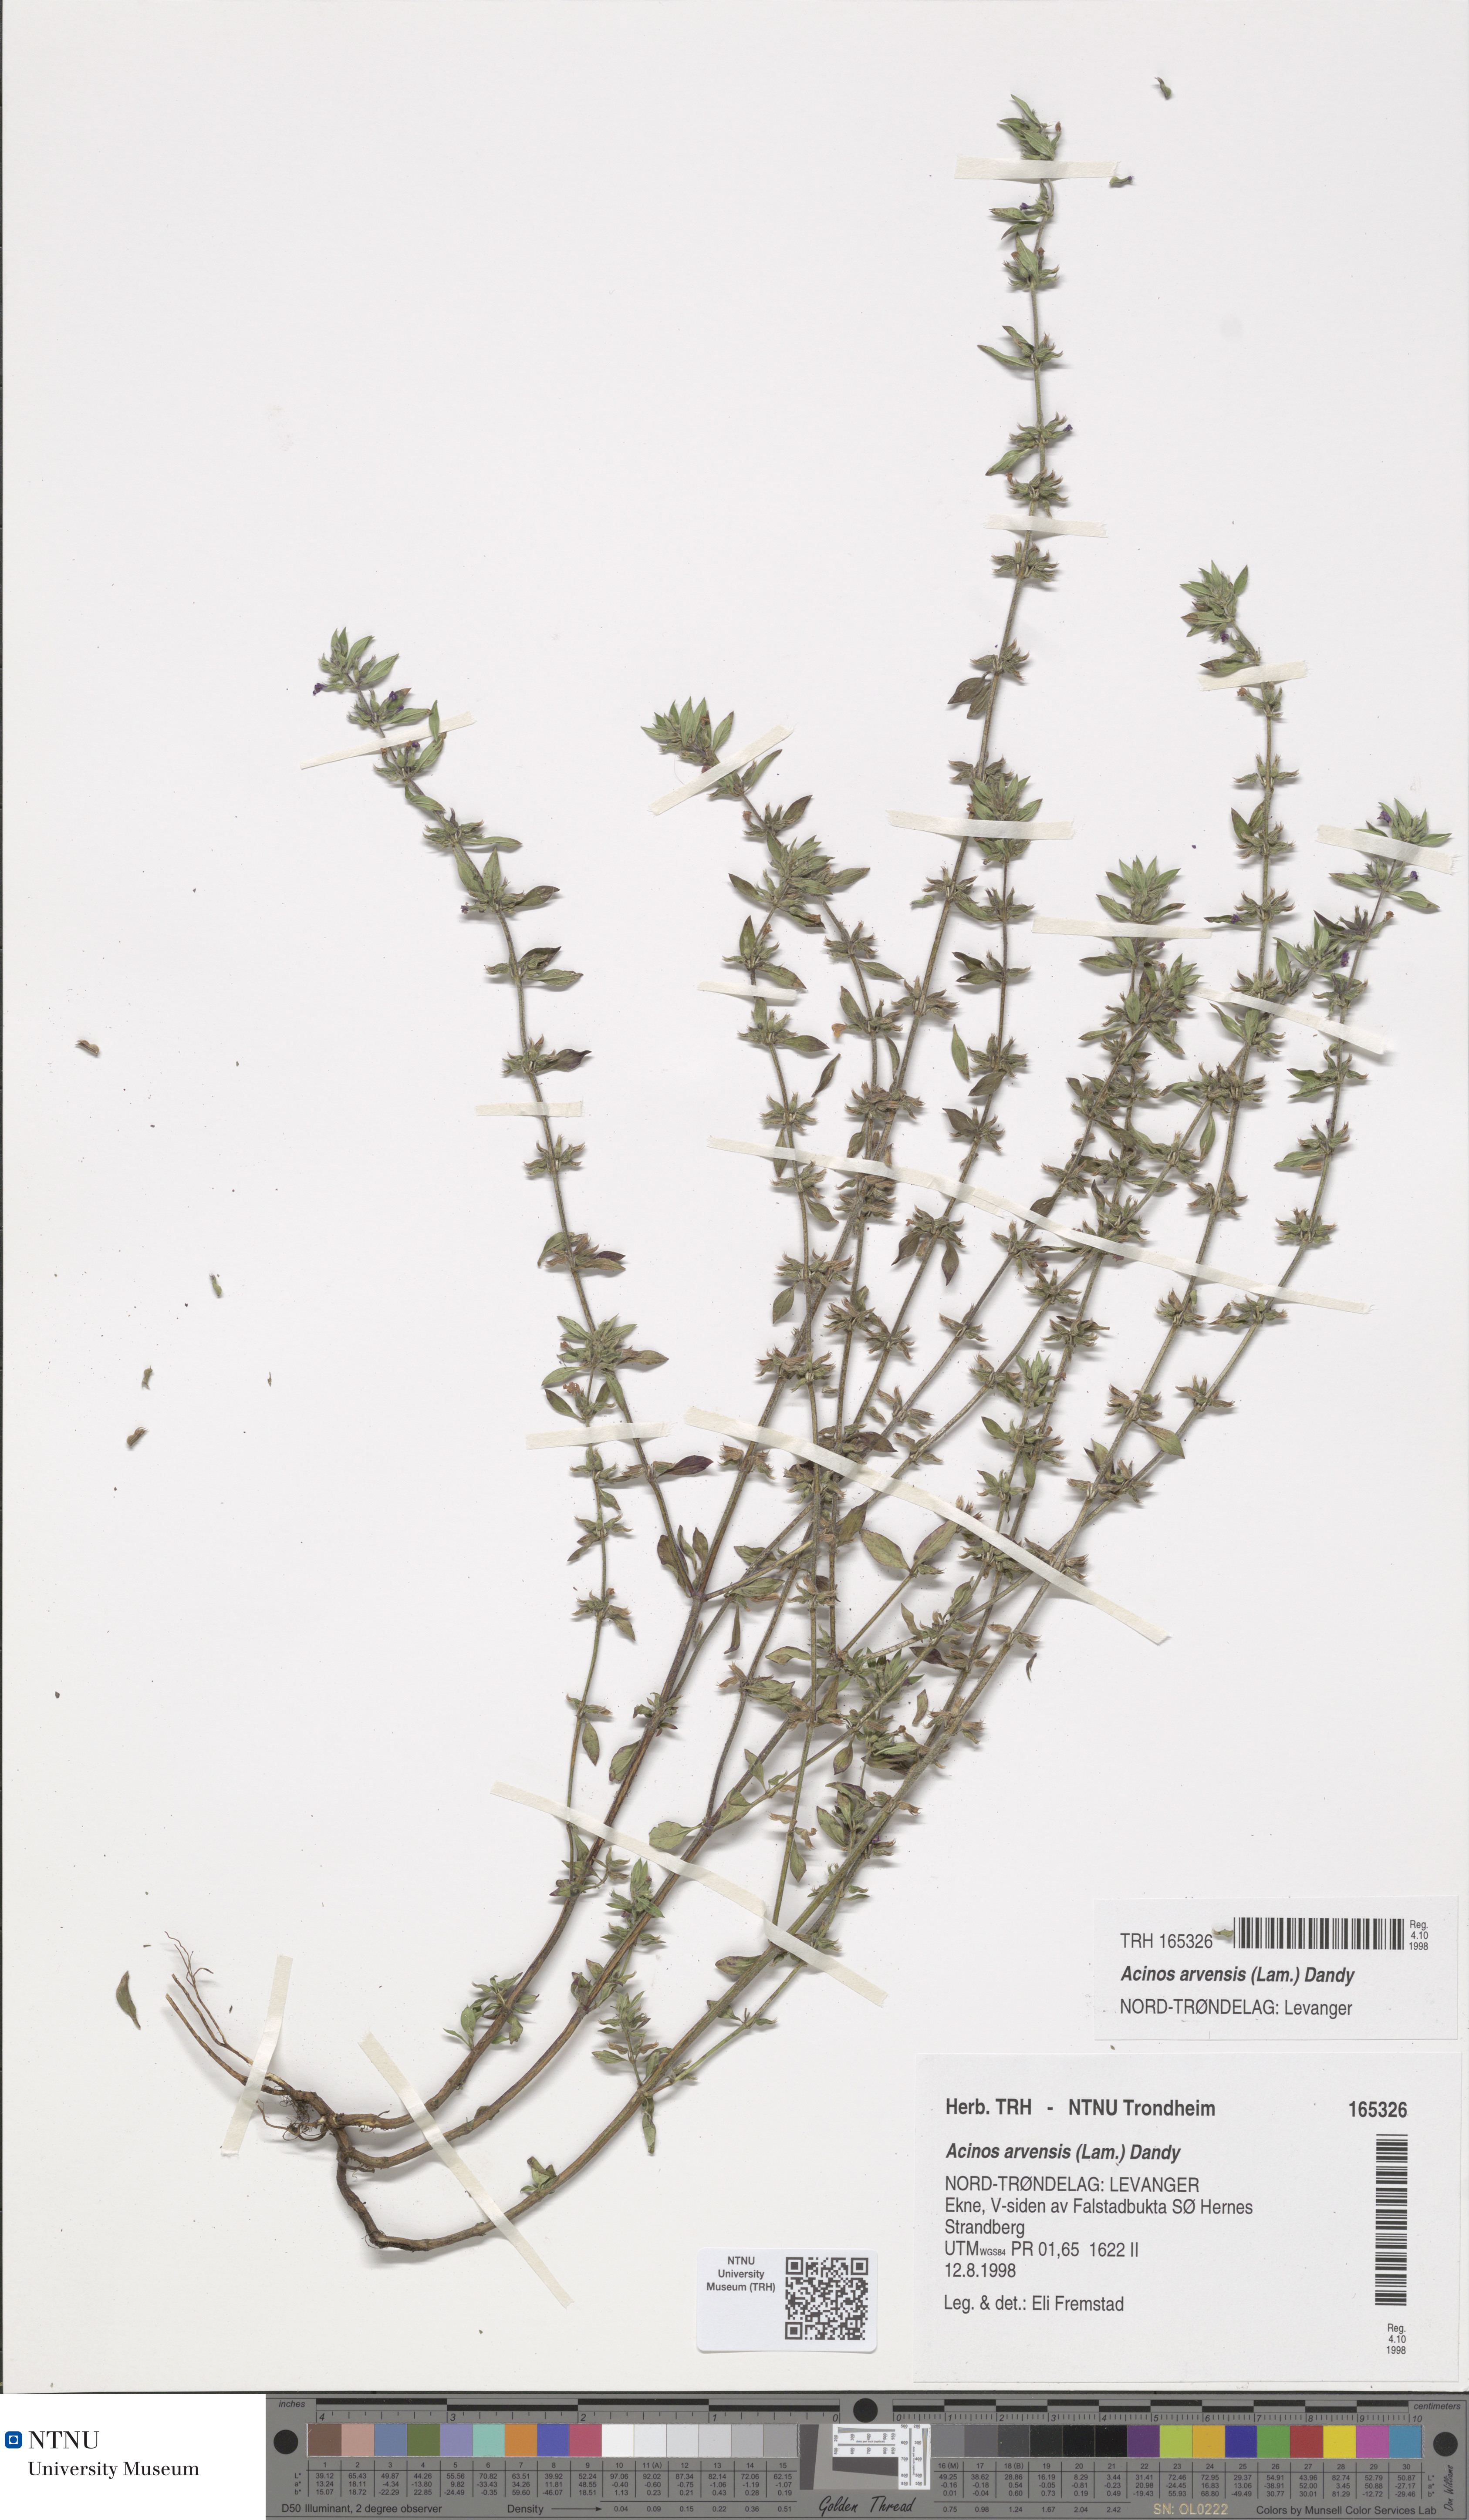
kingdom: Plantae
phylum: Tracheophyta
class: Magnoliopsida
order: Lamiales
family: Lamiaceae
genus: Clinopodium
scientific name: Clinopodium acinos
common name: Basil thyme
